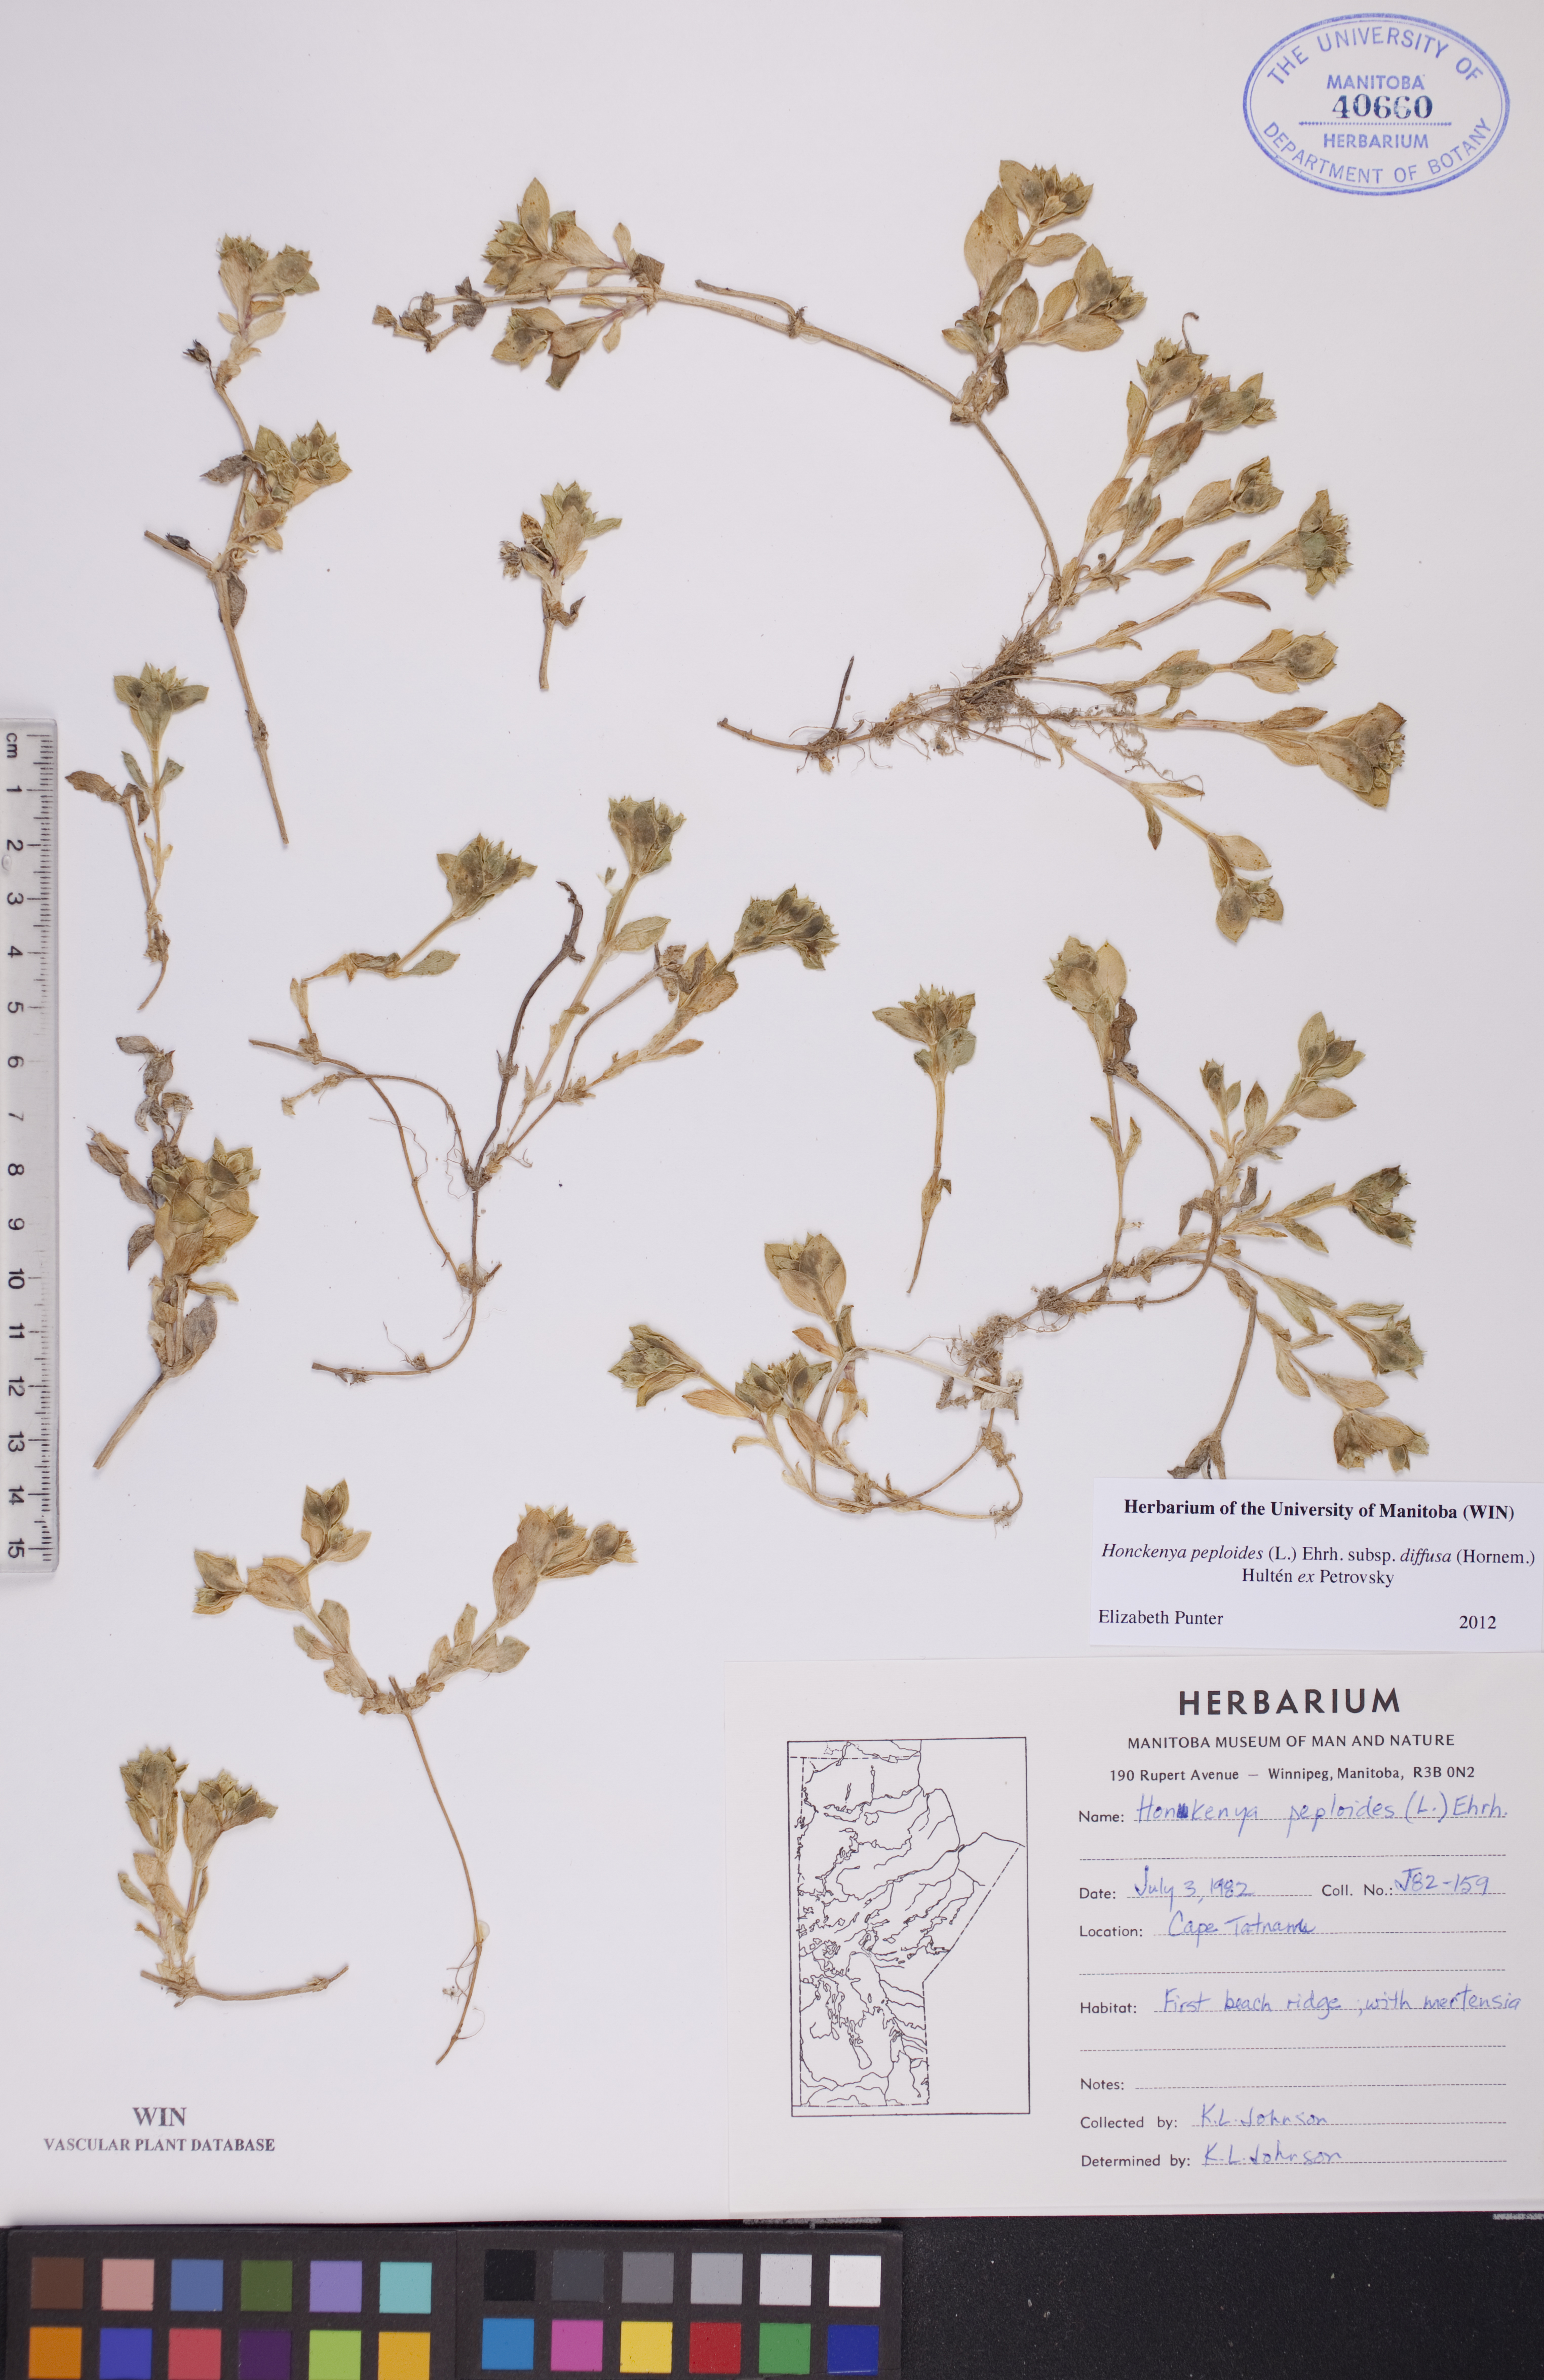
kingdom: Plantae
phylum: Tracheophyta
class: Magnoliopsida
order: Caryophyllales
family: Caryophyllaceae
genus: Honckenya
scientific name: Honckenya peploides
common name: Sea sandwort
